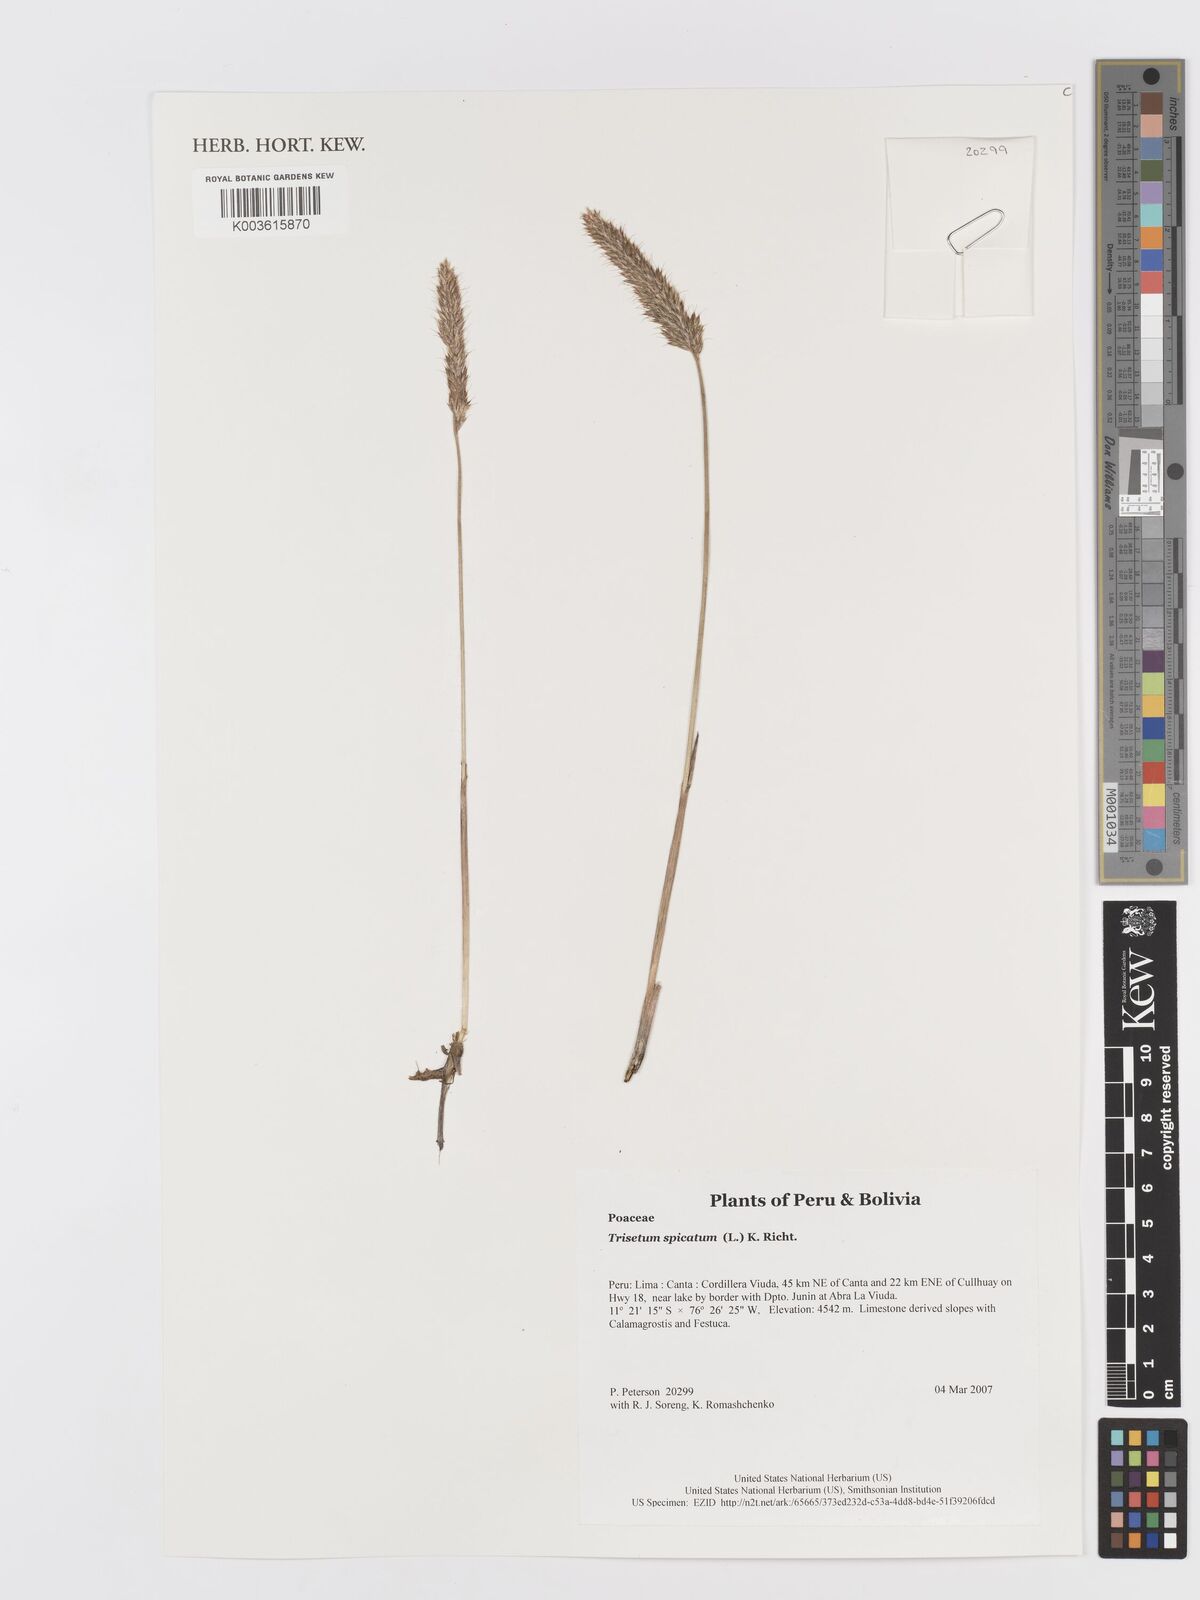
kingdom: Plantae
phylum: Tracheophyta
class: Liliopsida
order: Poales
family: Poaceae
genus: Koeleria
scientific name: Koeleria spicata
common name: Mountain trisetum
